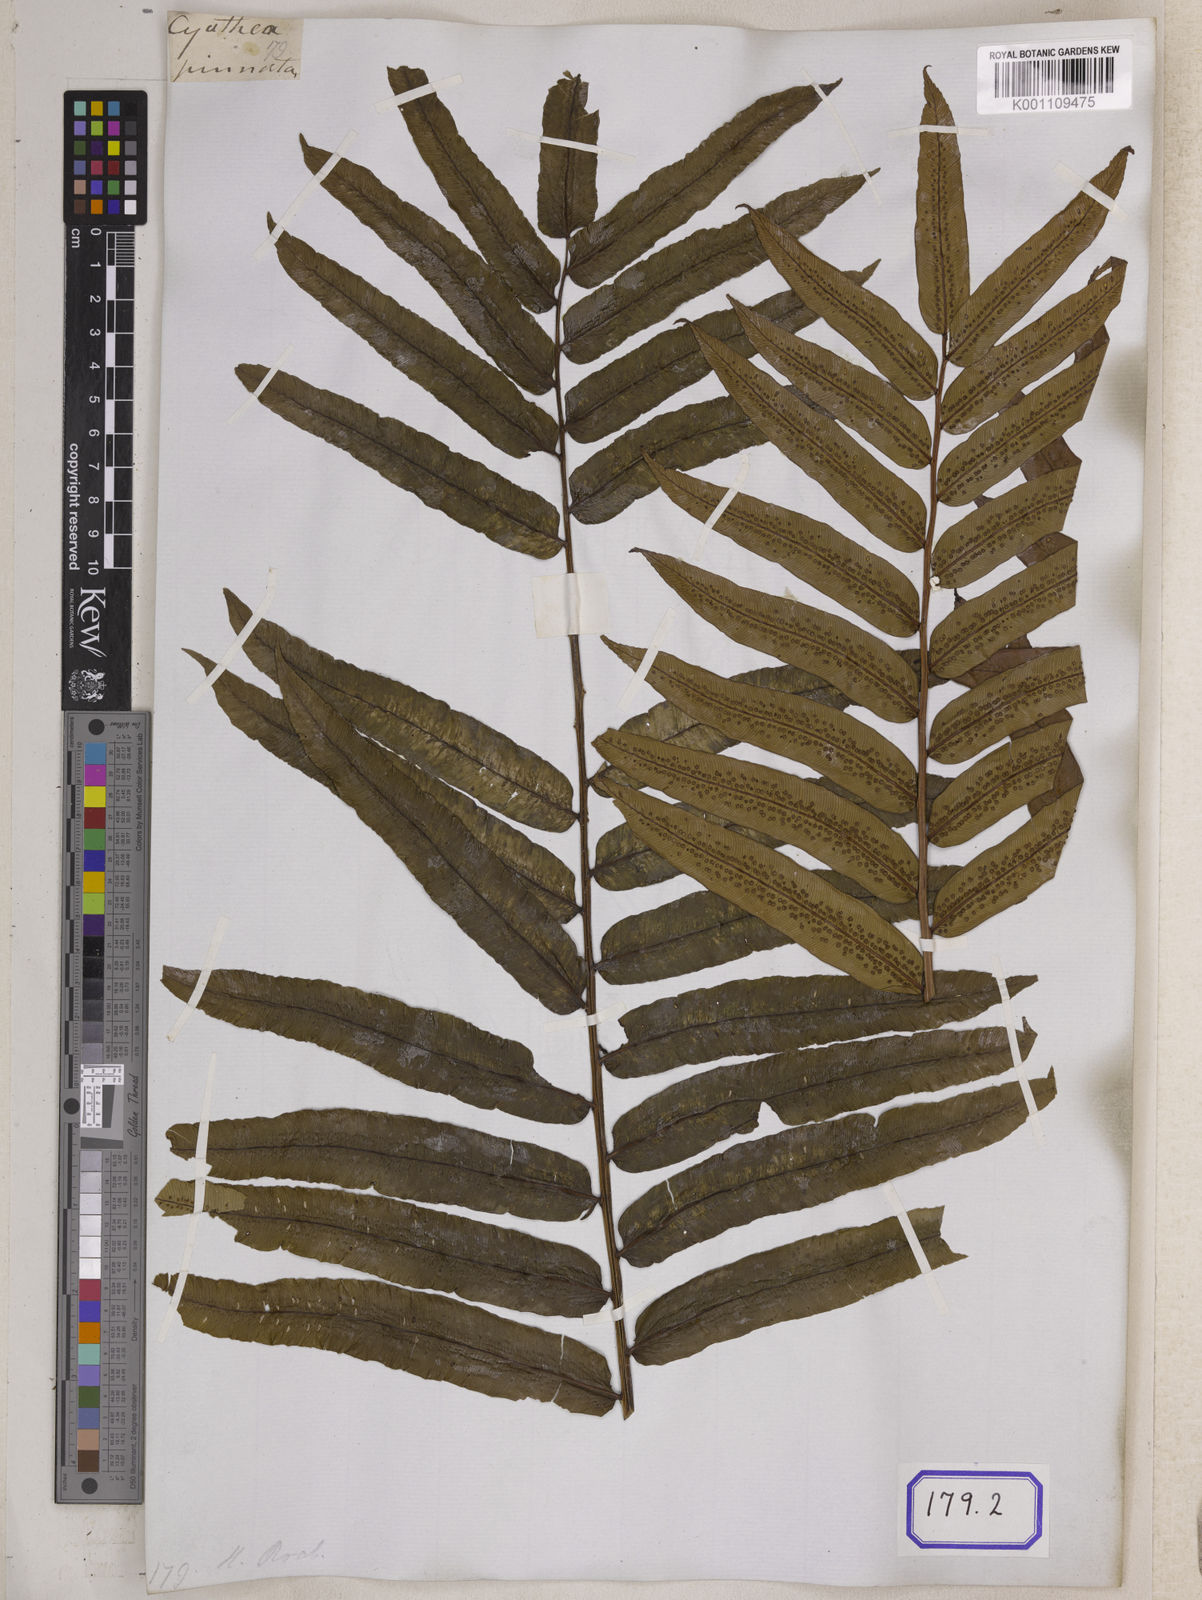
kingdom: Plantae
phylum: Tracheophyta
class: Polypodiopsida
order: Cyatheales
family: Cyatheaceae
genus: Sphaeropteris
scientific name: Sphaeropteris moluccana
